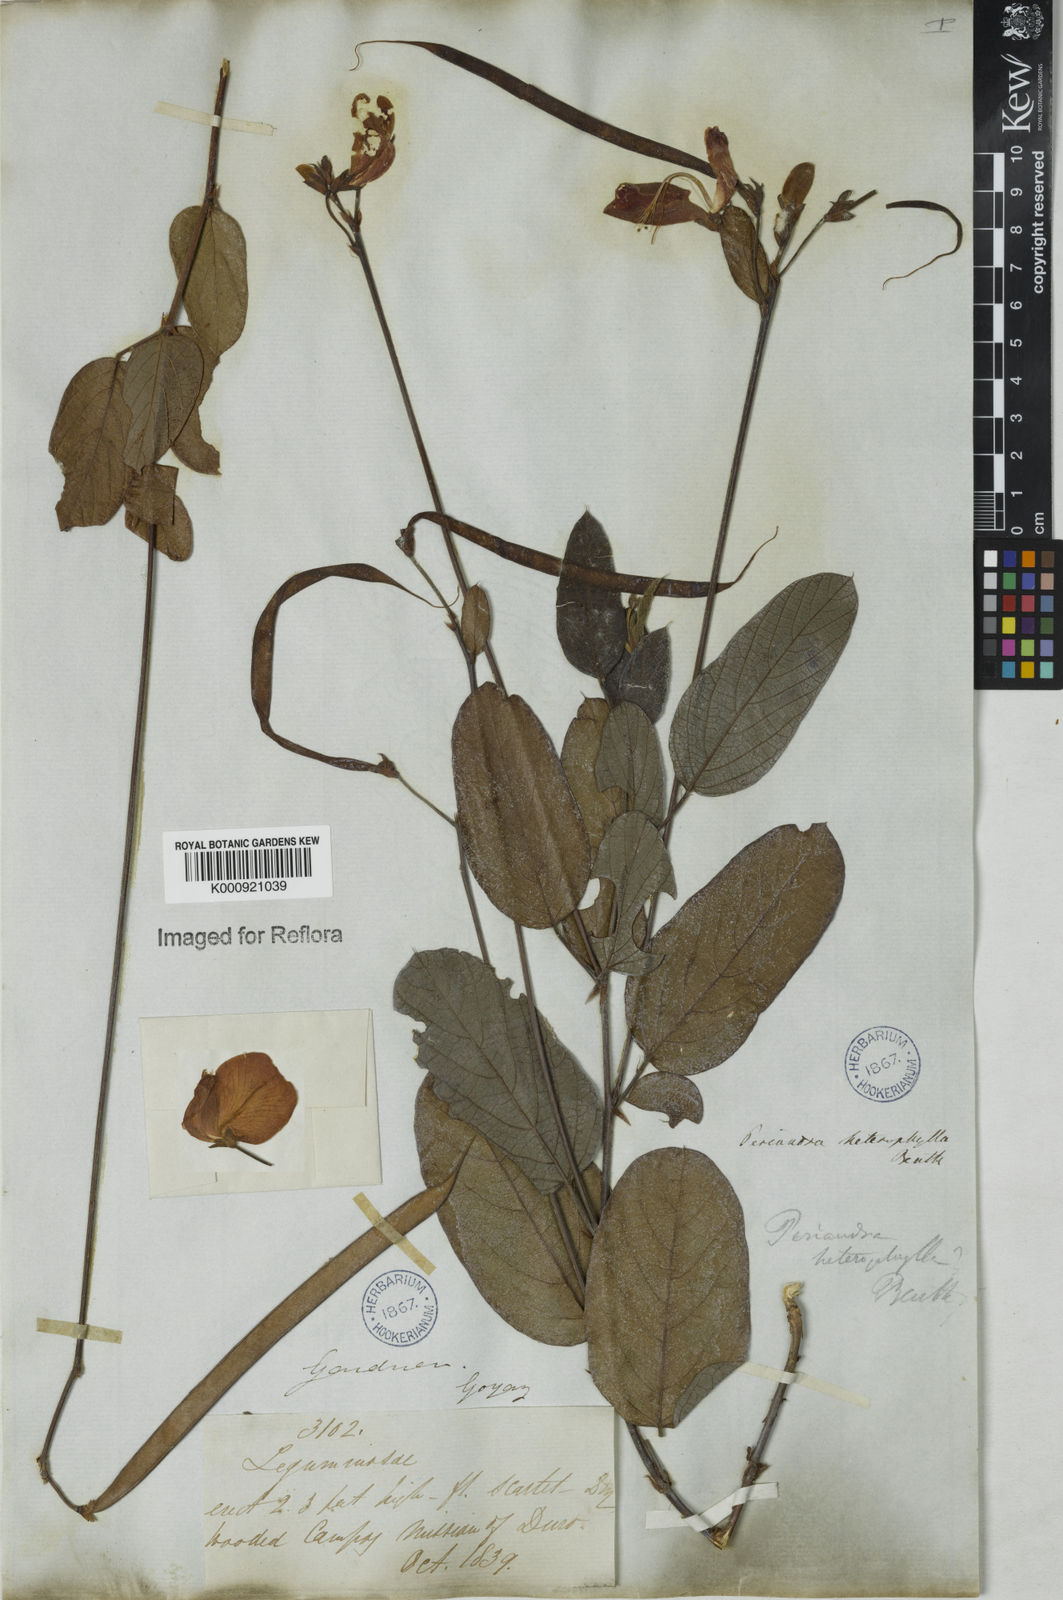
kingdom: Plantae
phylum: Tracheophyta
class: Magnoliopsida
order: Fabales
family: Fabaceae
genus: Periandra
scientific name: Periandra heterophylla
